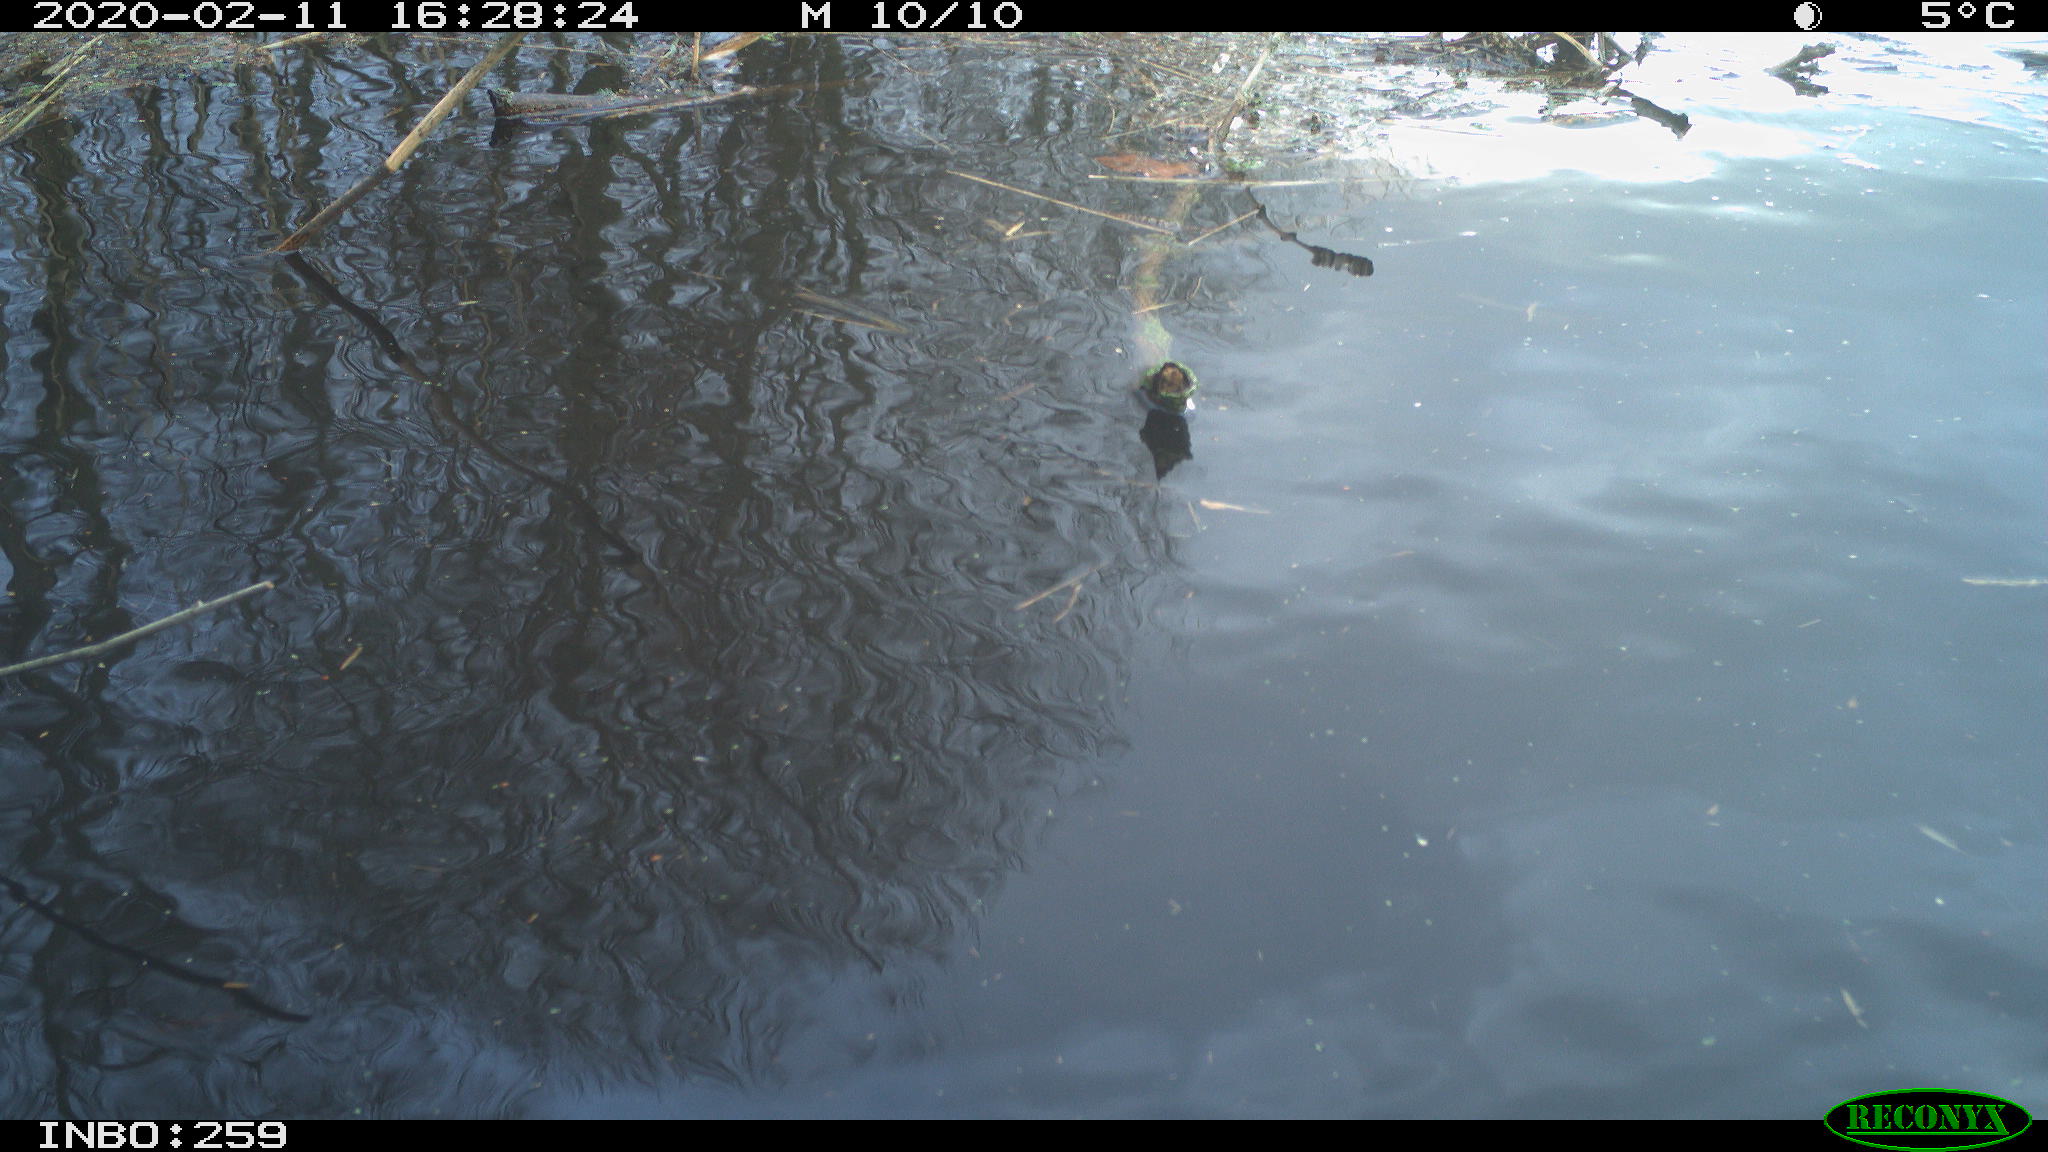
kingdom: Animalia
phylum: Chordata
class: Aves
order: Gruiformes
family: Rallidae
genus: Gallinula
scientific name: Gallinula chloropus
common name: Common moorhen
